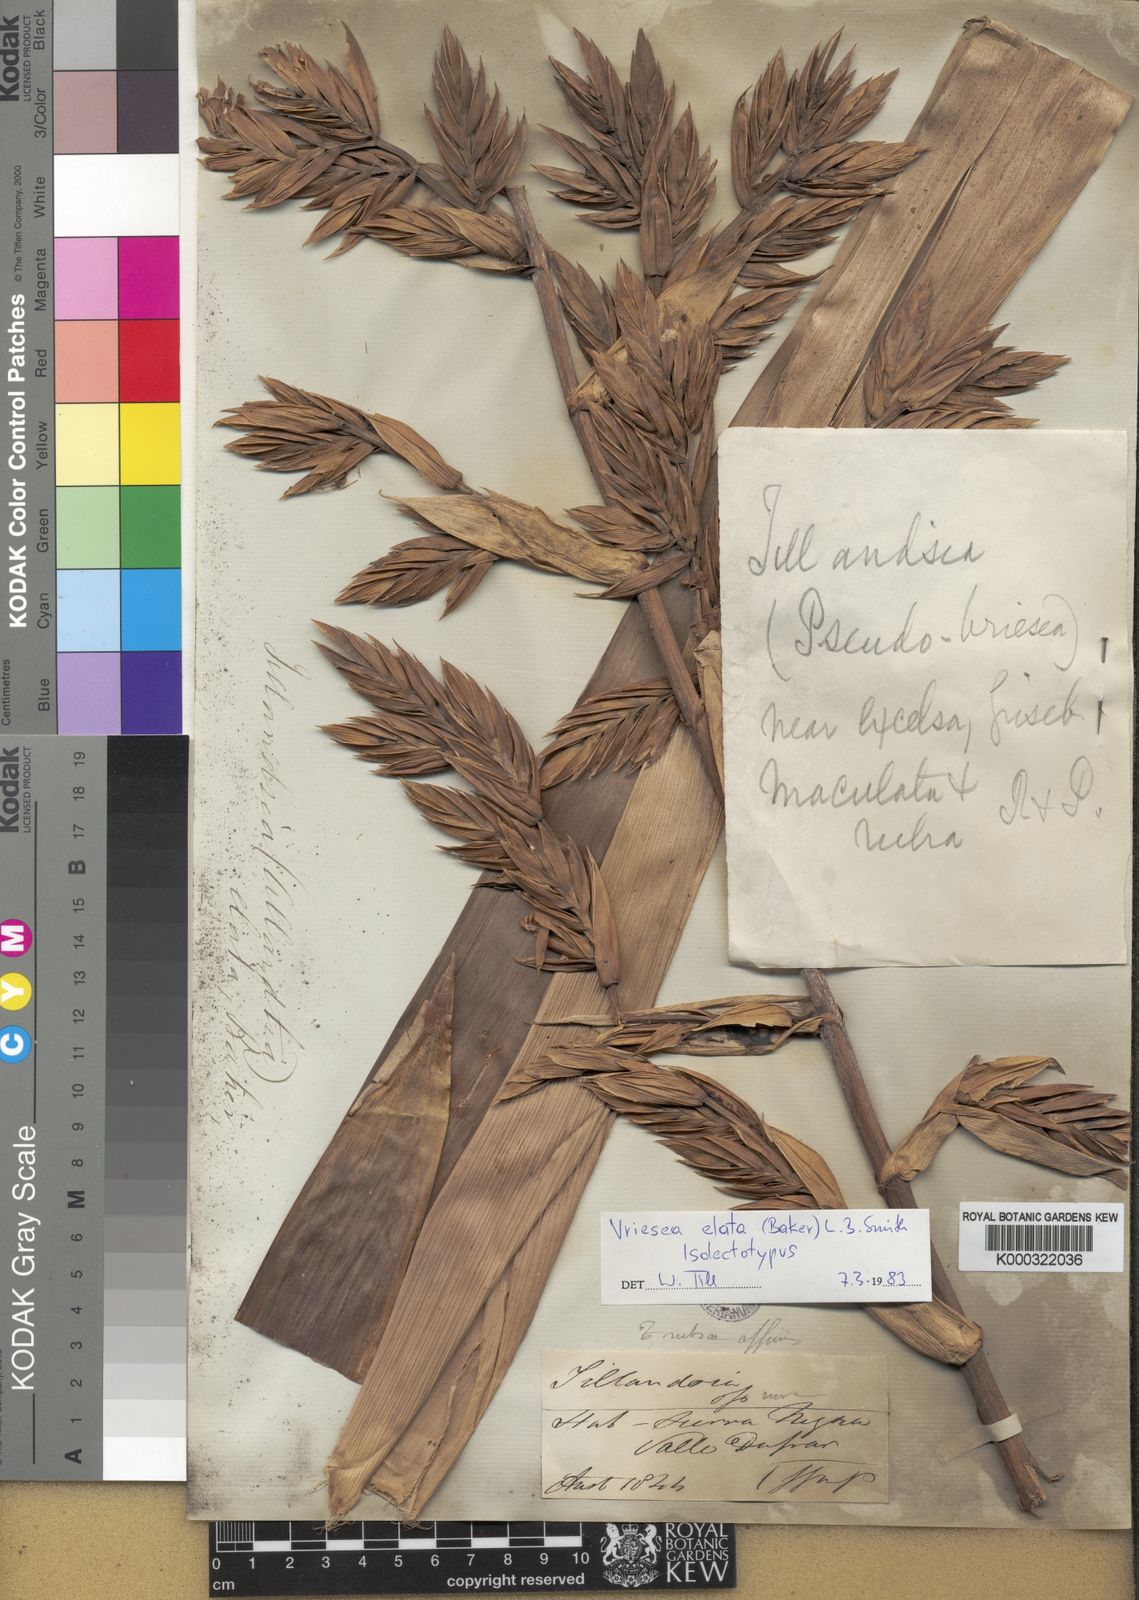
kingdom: Plantae
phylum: Tracheophyta
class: Liliopsida
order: Poales
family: Bromeliaceae
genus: Vriesea
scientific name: Vriesea elata
